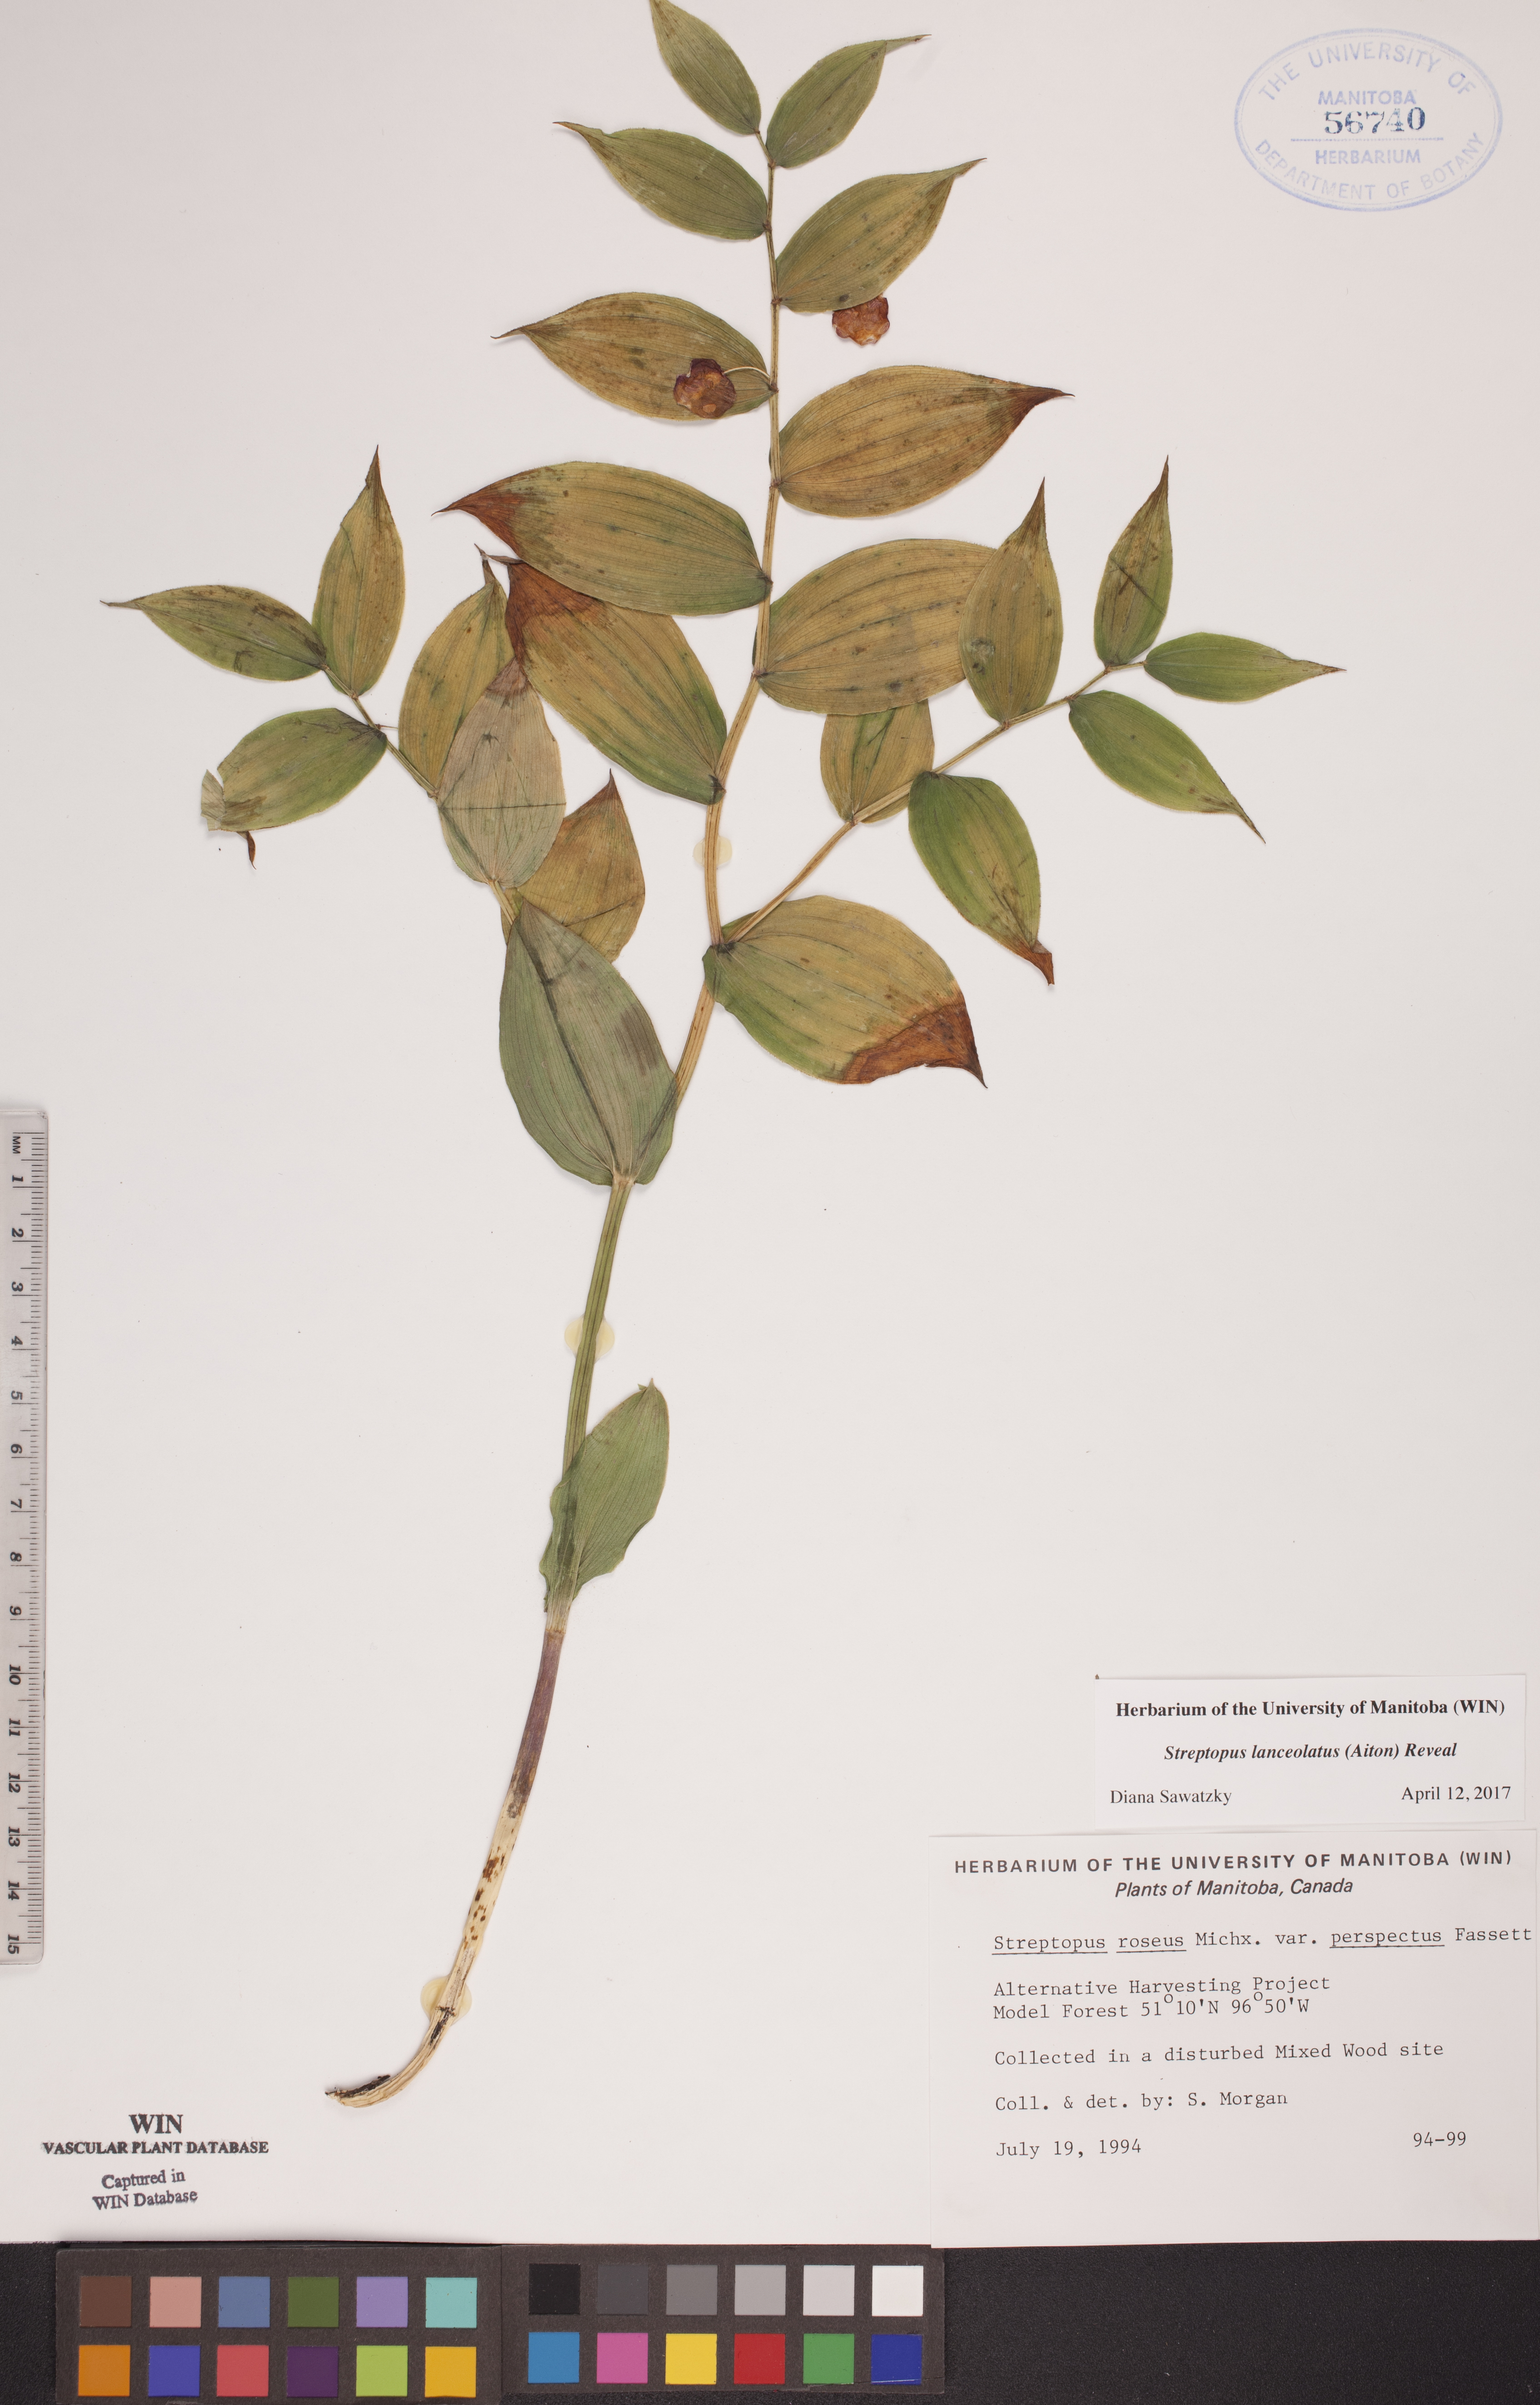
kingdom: Plantae
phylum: Tracheophyta
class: Liliopsida
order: Liliales
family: Liliaceae
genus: Streptopus
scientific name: Streptopus lanceolatus
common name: Rose mandarin
